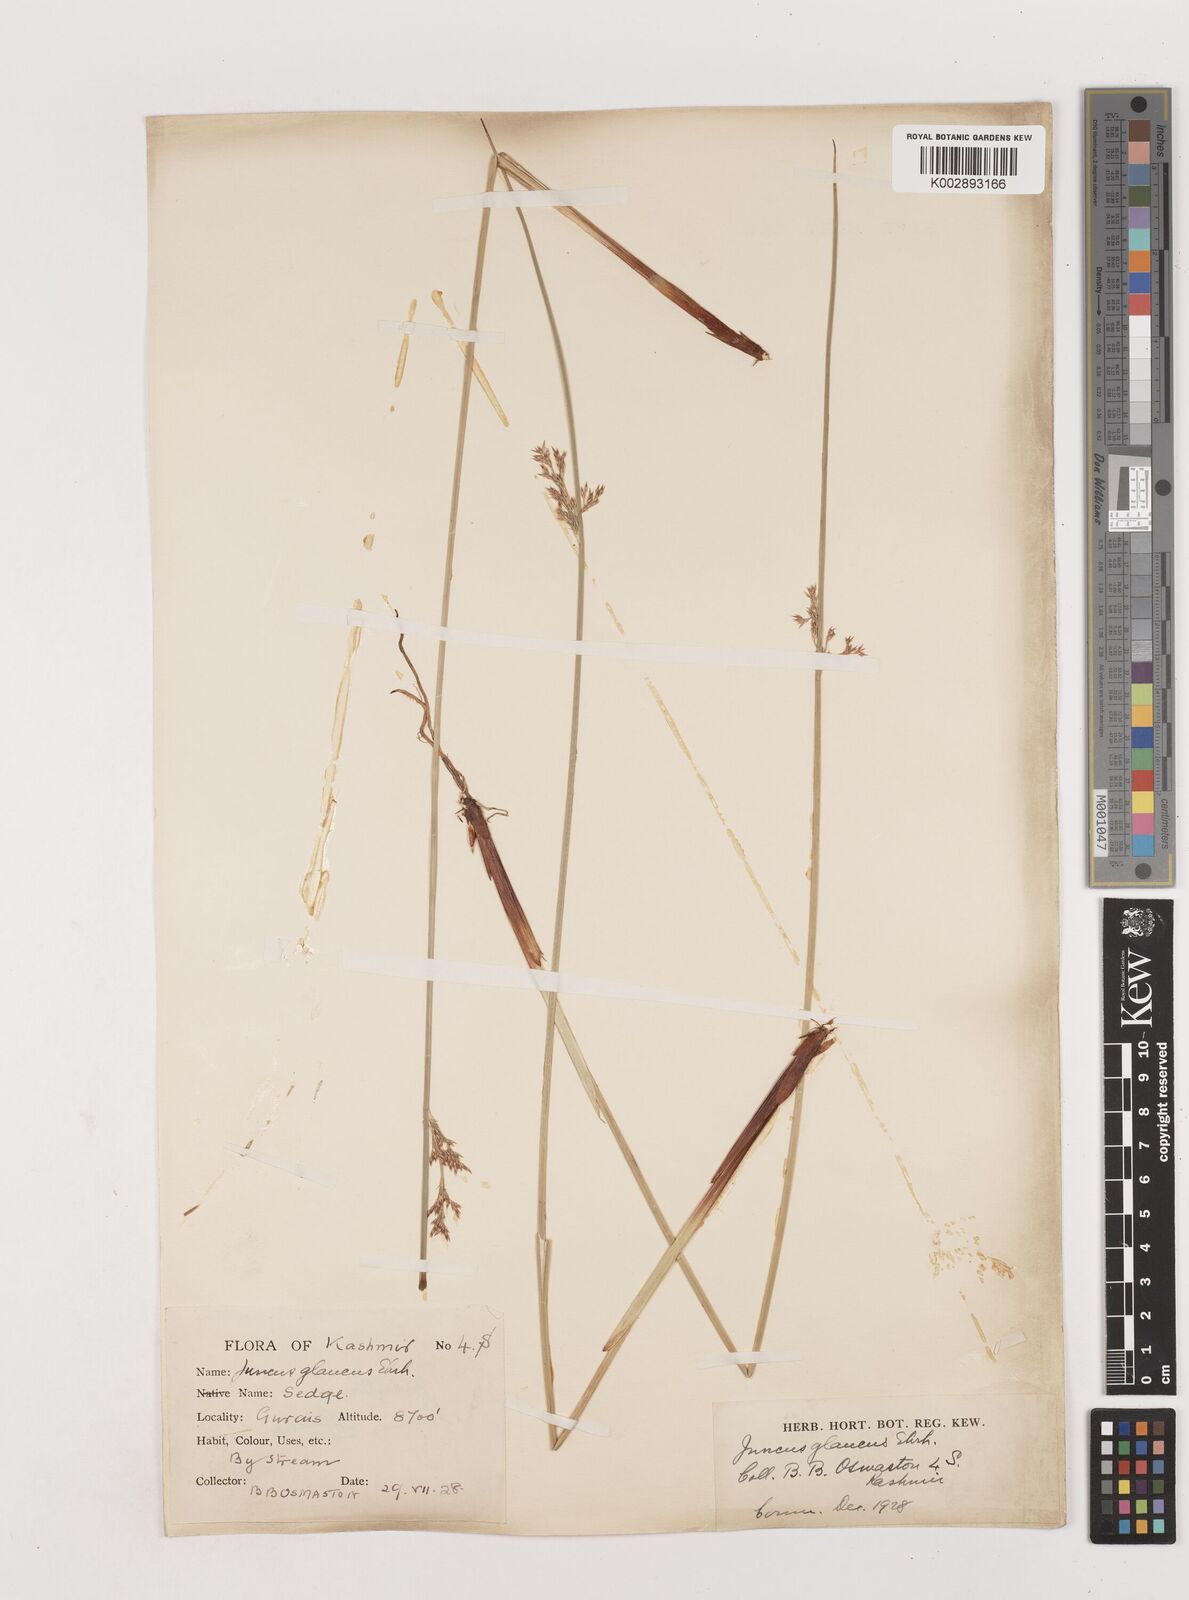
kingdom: Plantae
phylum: Tracheophyta
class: Liliopsida
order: Poales
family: Juncaceae
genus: Juncus
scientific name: Juncus inflexus
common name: Hard rush
